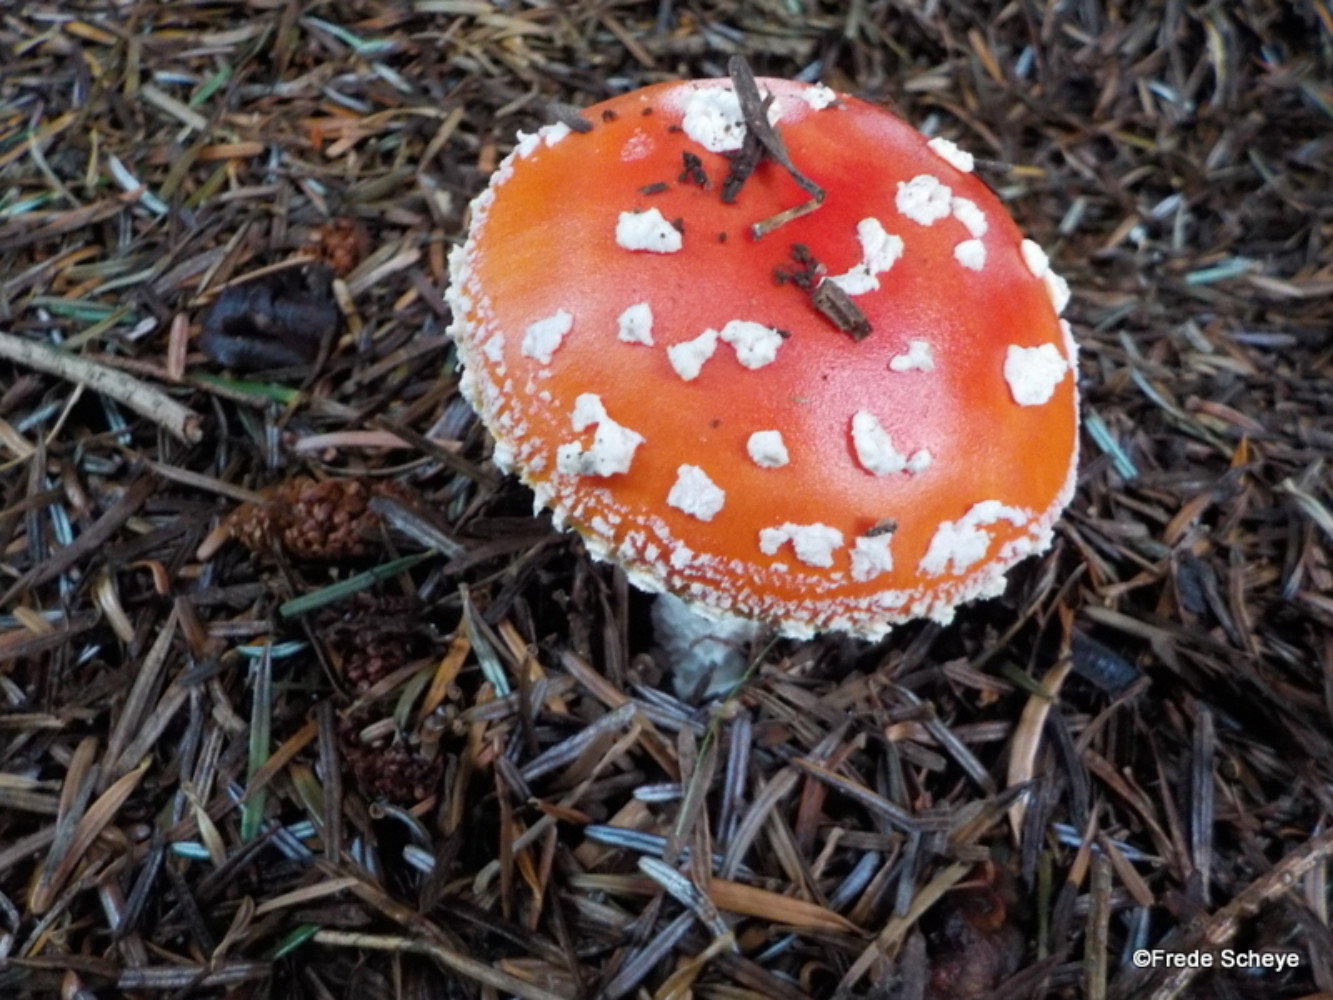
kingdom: Fungi
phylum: Basidiomycota
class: Agaricomycetes
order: Agaricales
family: Amanitaceae
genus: Amanita
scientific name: Amanita muscaria
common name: rød fluesvamp
